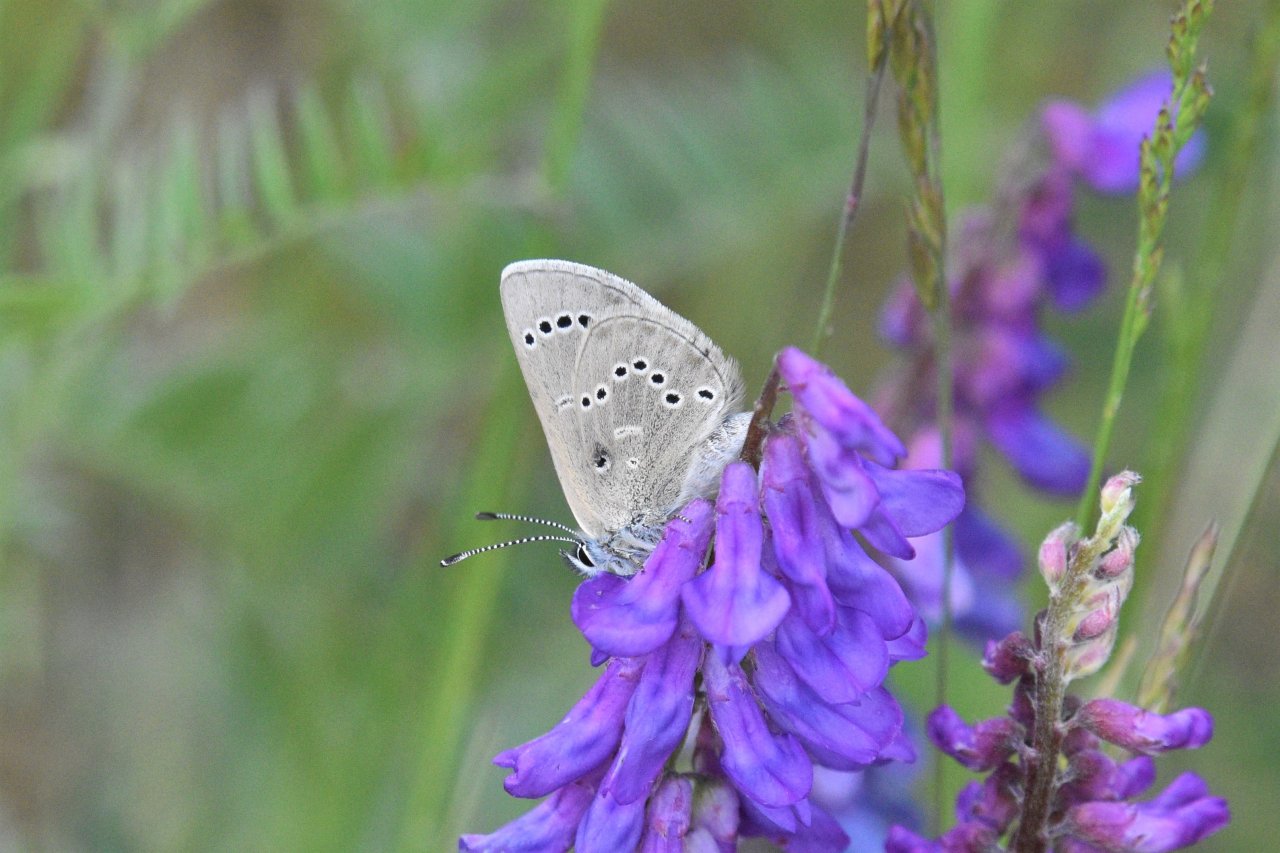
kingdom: Animalia
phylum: Arthropoda
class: Insecta
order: Lepidoptera
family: Lycaenidae
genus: Glaucopsyche
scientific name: Glaucopsyche lygdamus
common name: Silvery Blue
